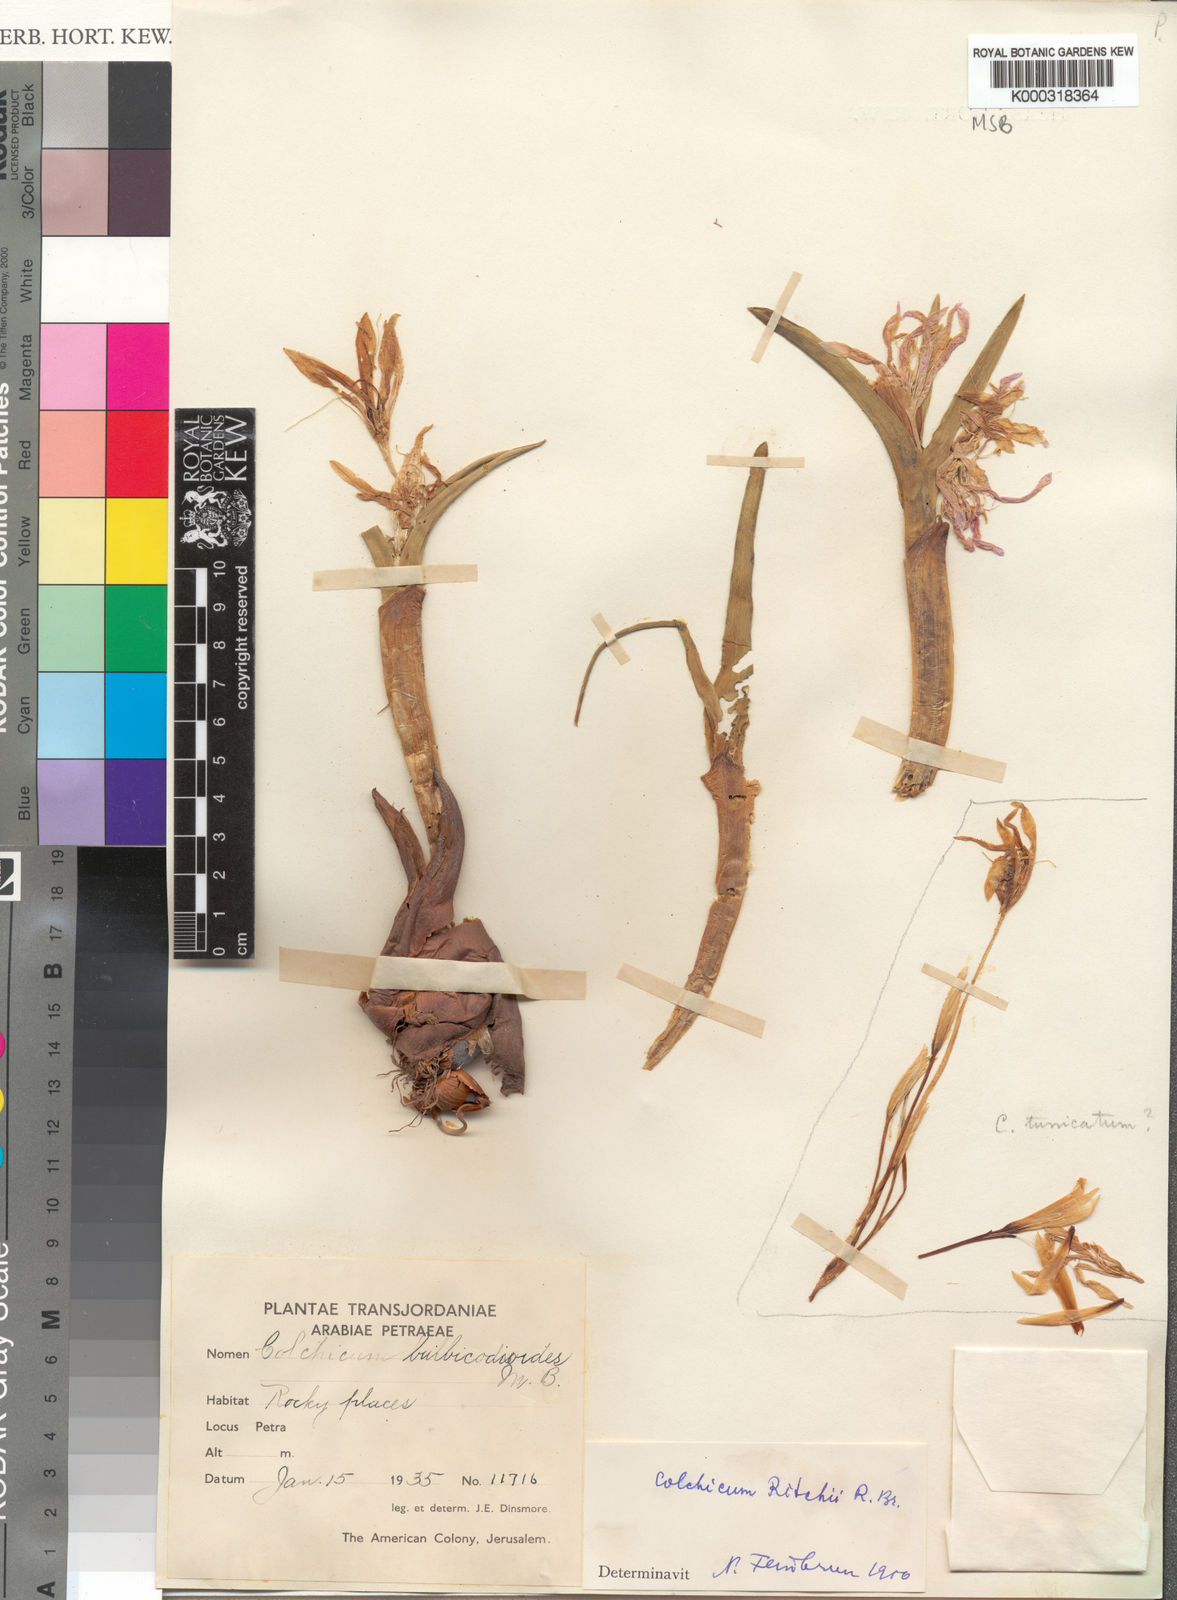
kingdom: Plantae
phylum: Tracheophyta
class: Liliopsida
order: Liliales
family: Colchicaceae
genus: Colchicum
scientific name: Colchicum ritchii
